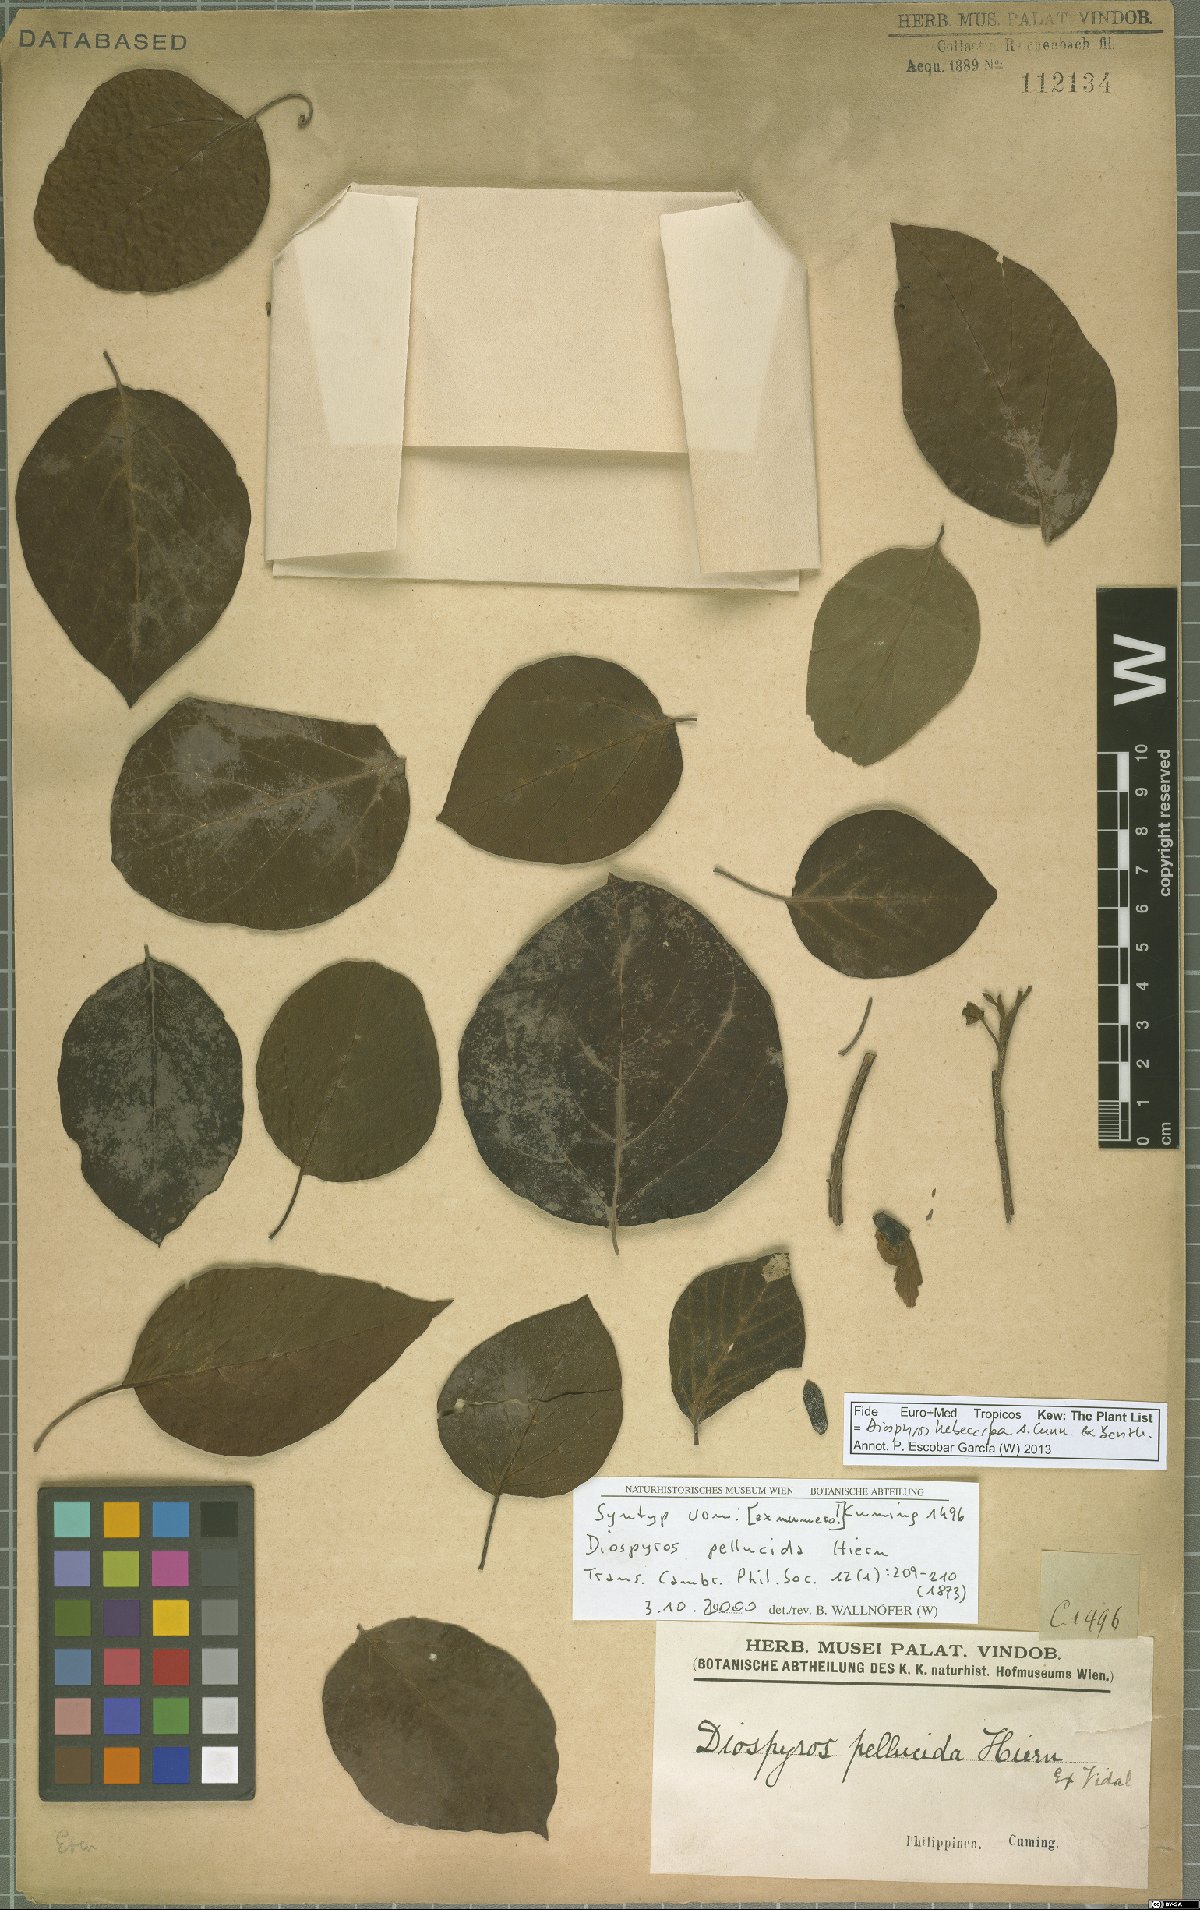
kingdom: Plantae
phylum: Tracheophyta
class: Magnoliopsida
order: Ericales
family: Ebenaceae
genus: Diospyros
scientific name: Diospyros hebecarpa
